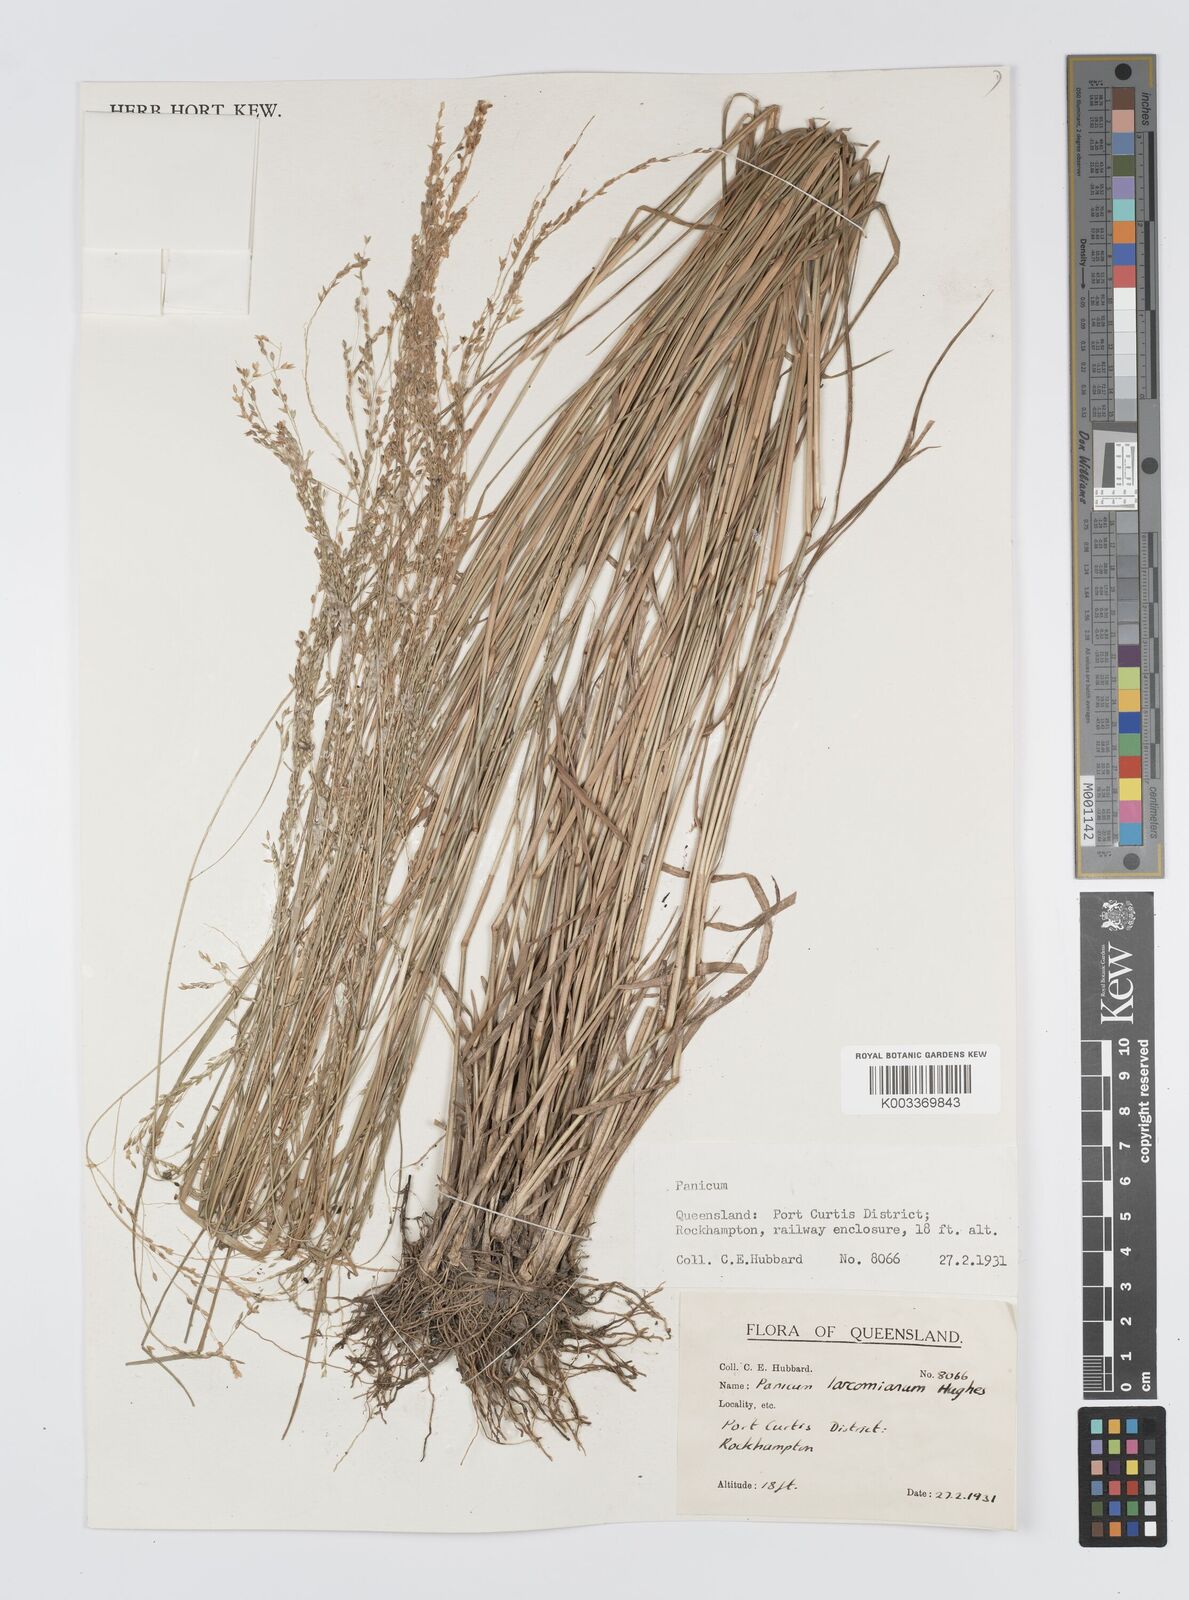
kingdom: Plantae
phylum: Tracheophyta
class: Liliopsida
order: Poales
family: Poaceae
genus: Panicum
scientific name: Panicum larcomianum
